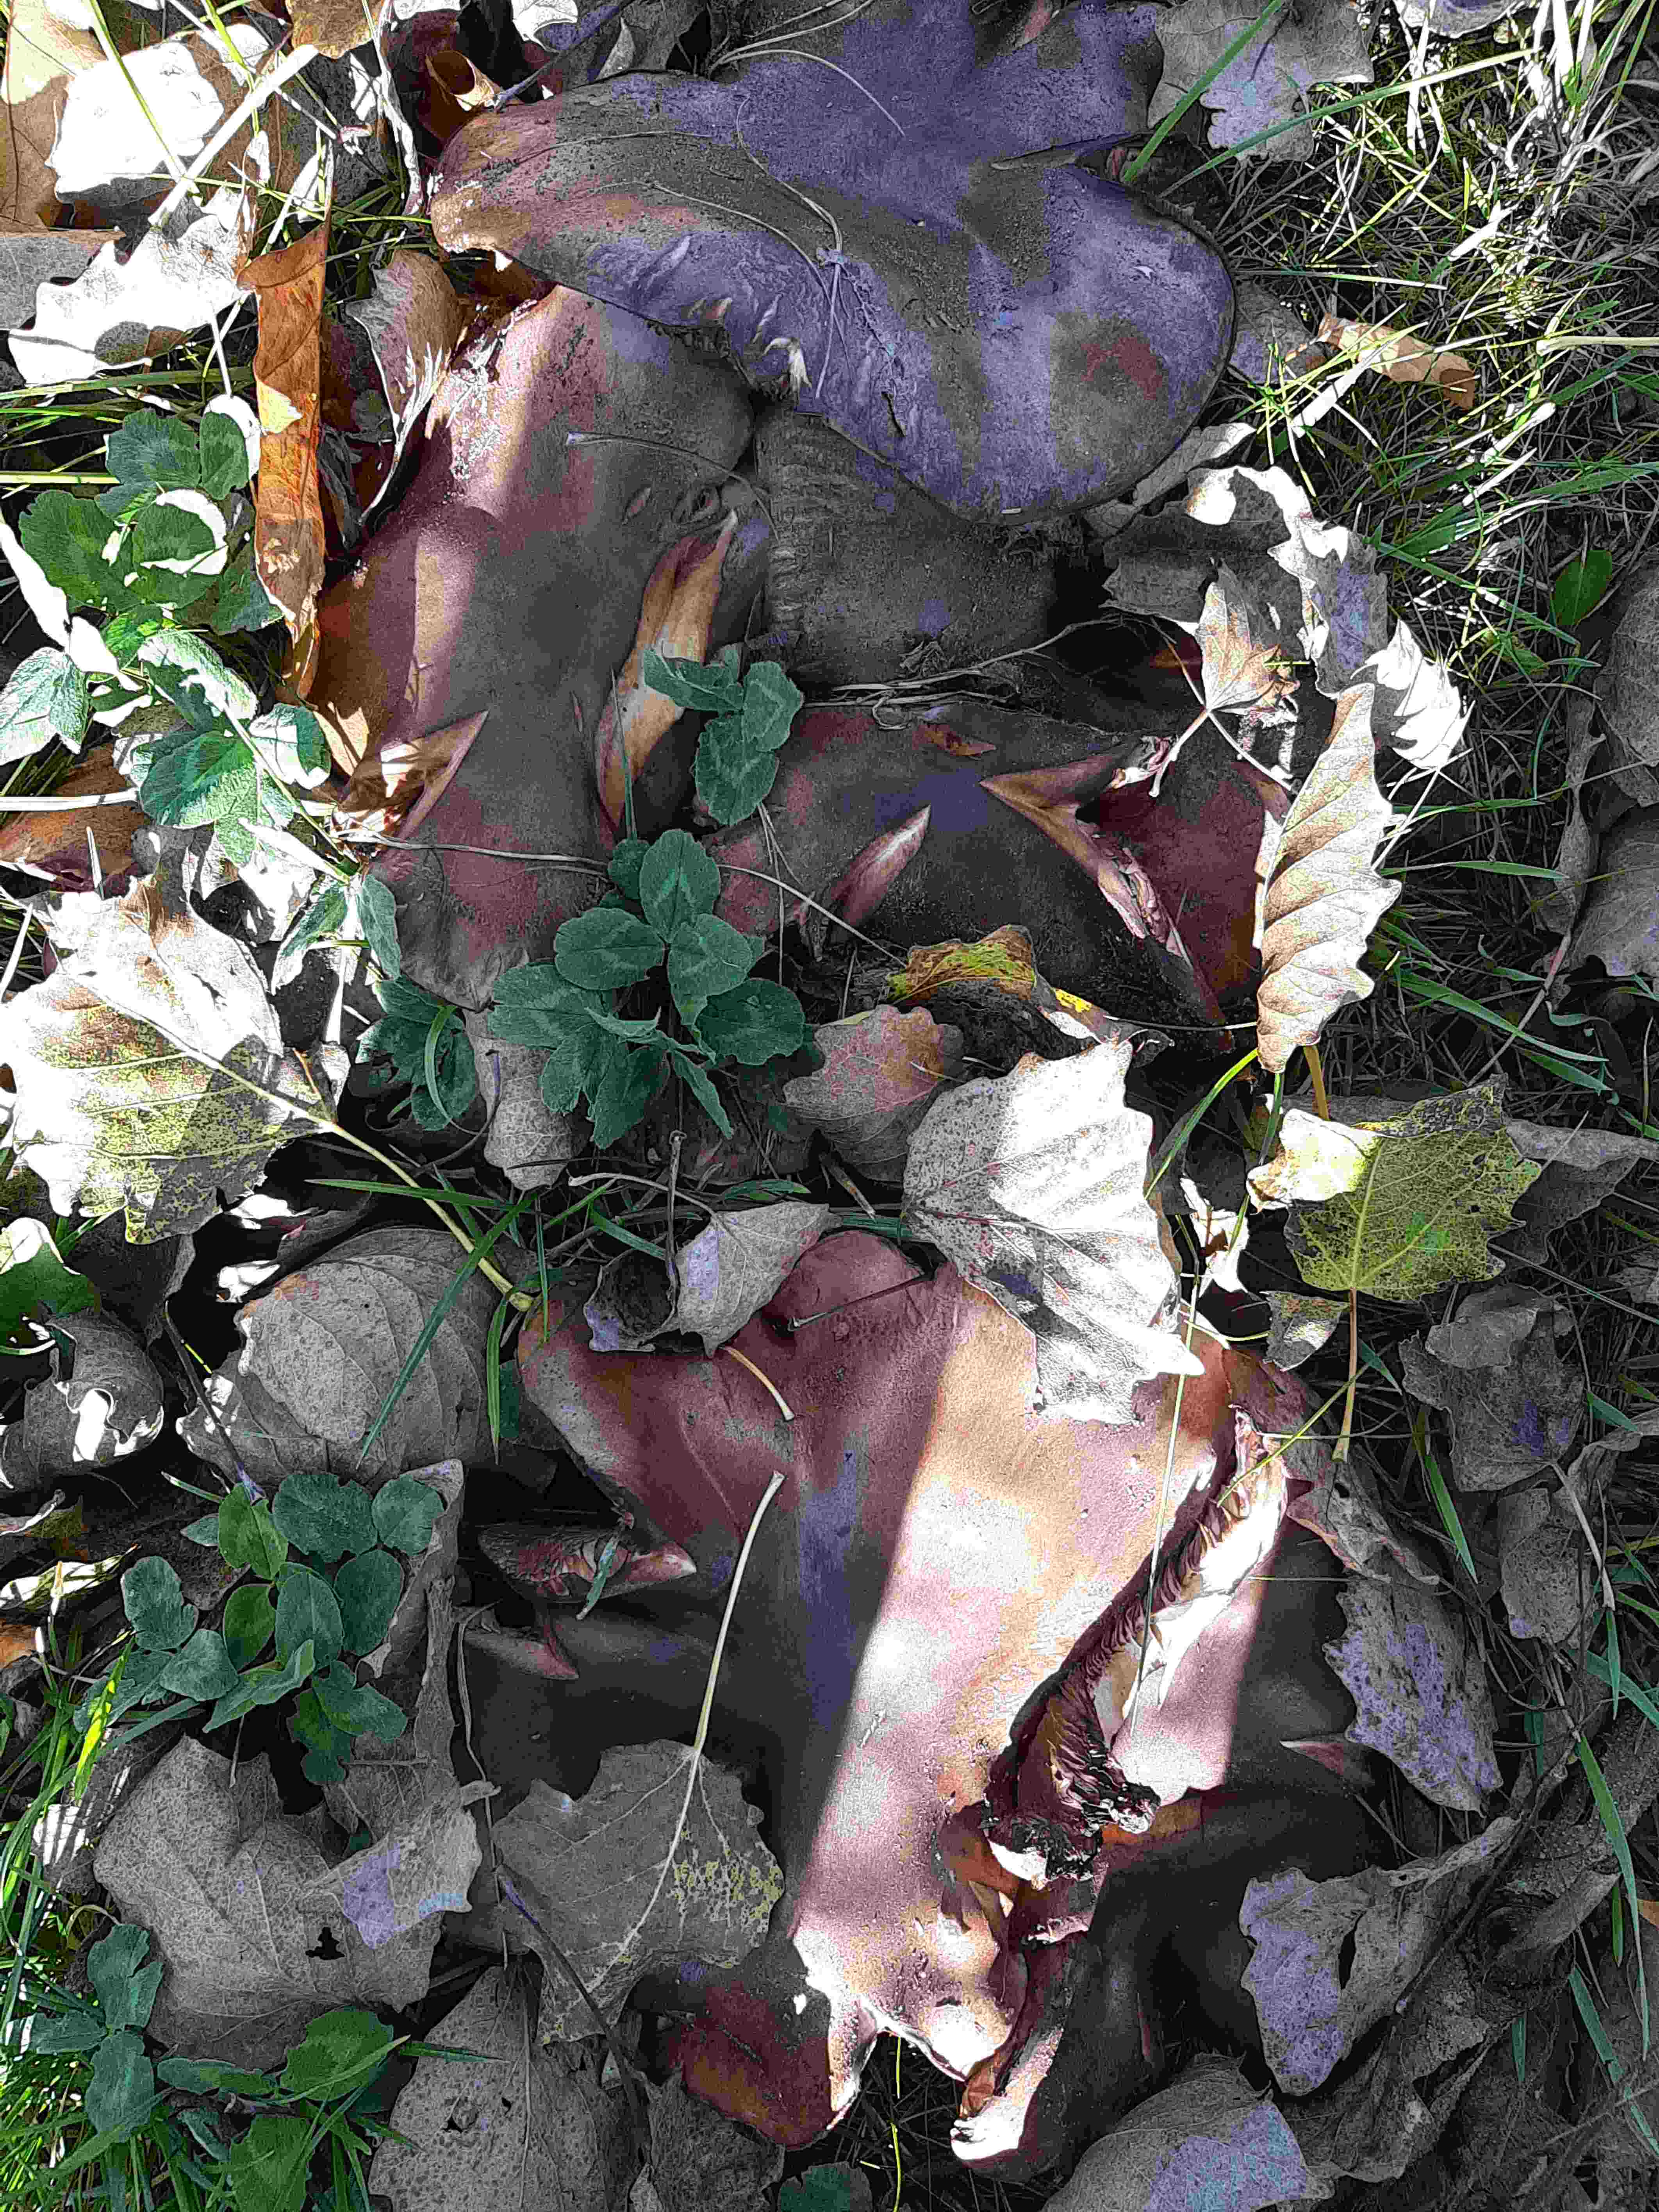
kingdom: Fungi
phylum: Basidiomycota
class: Agaricomycetes
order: Agaricales
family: Tricholomataceae
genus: Tricholoma
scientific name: Tricholoma populinum
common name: poppel-ridderhat
